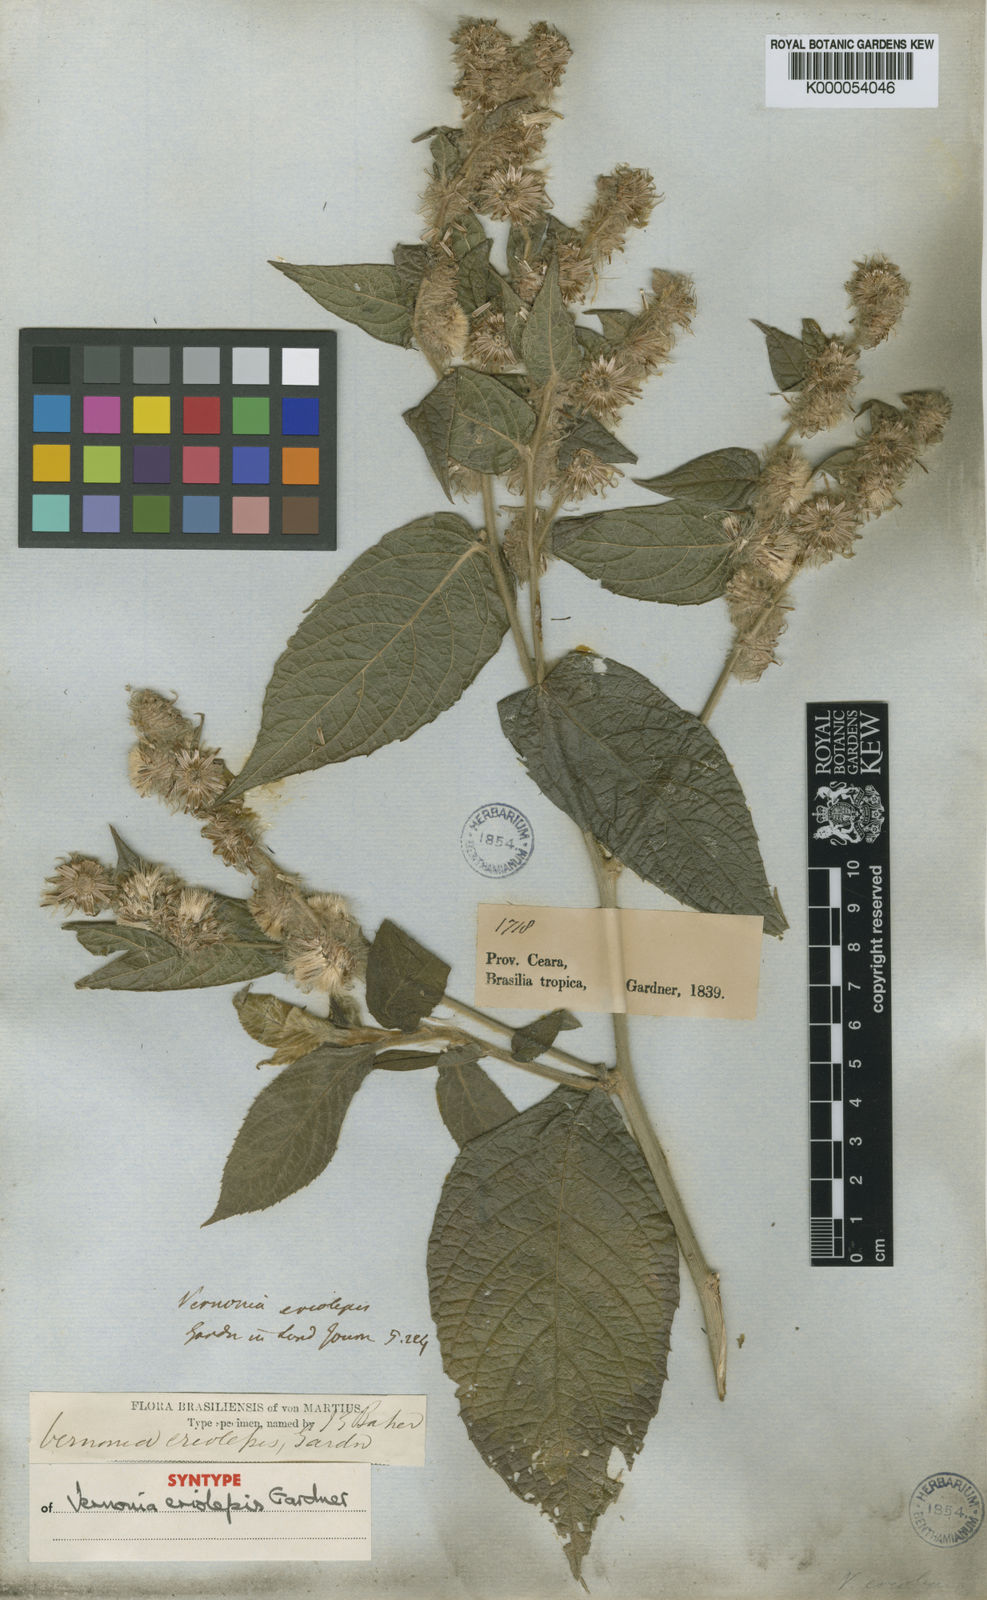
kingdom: Plantae
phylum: Tracheophyta
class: Magnoliopsida
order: Asterales
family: Asteraceae
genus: Lepidaploa
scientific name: Lepidaploa eriolepis
